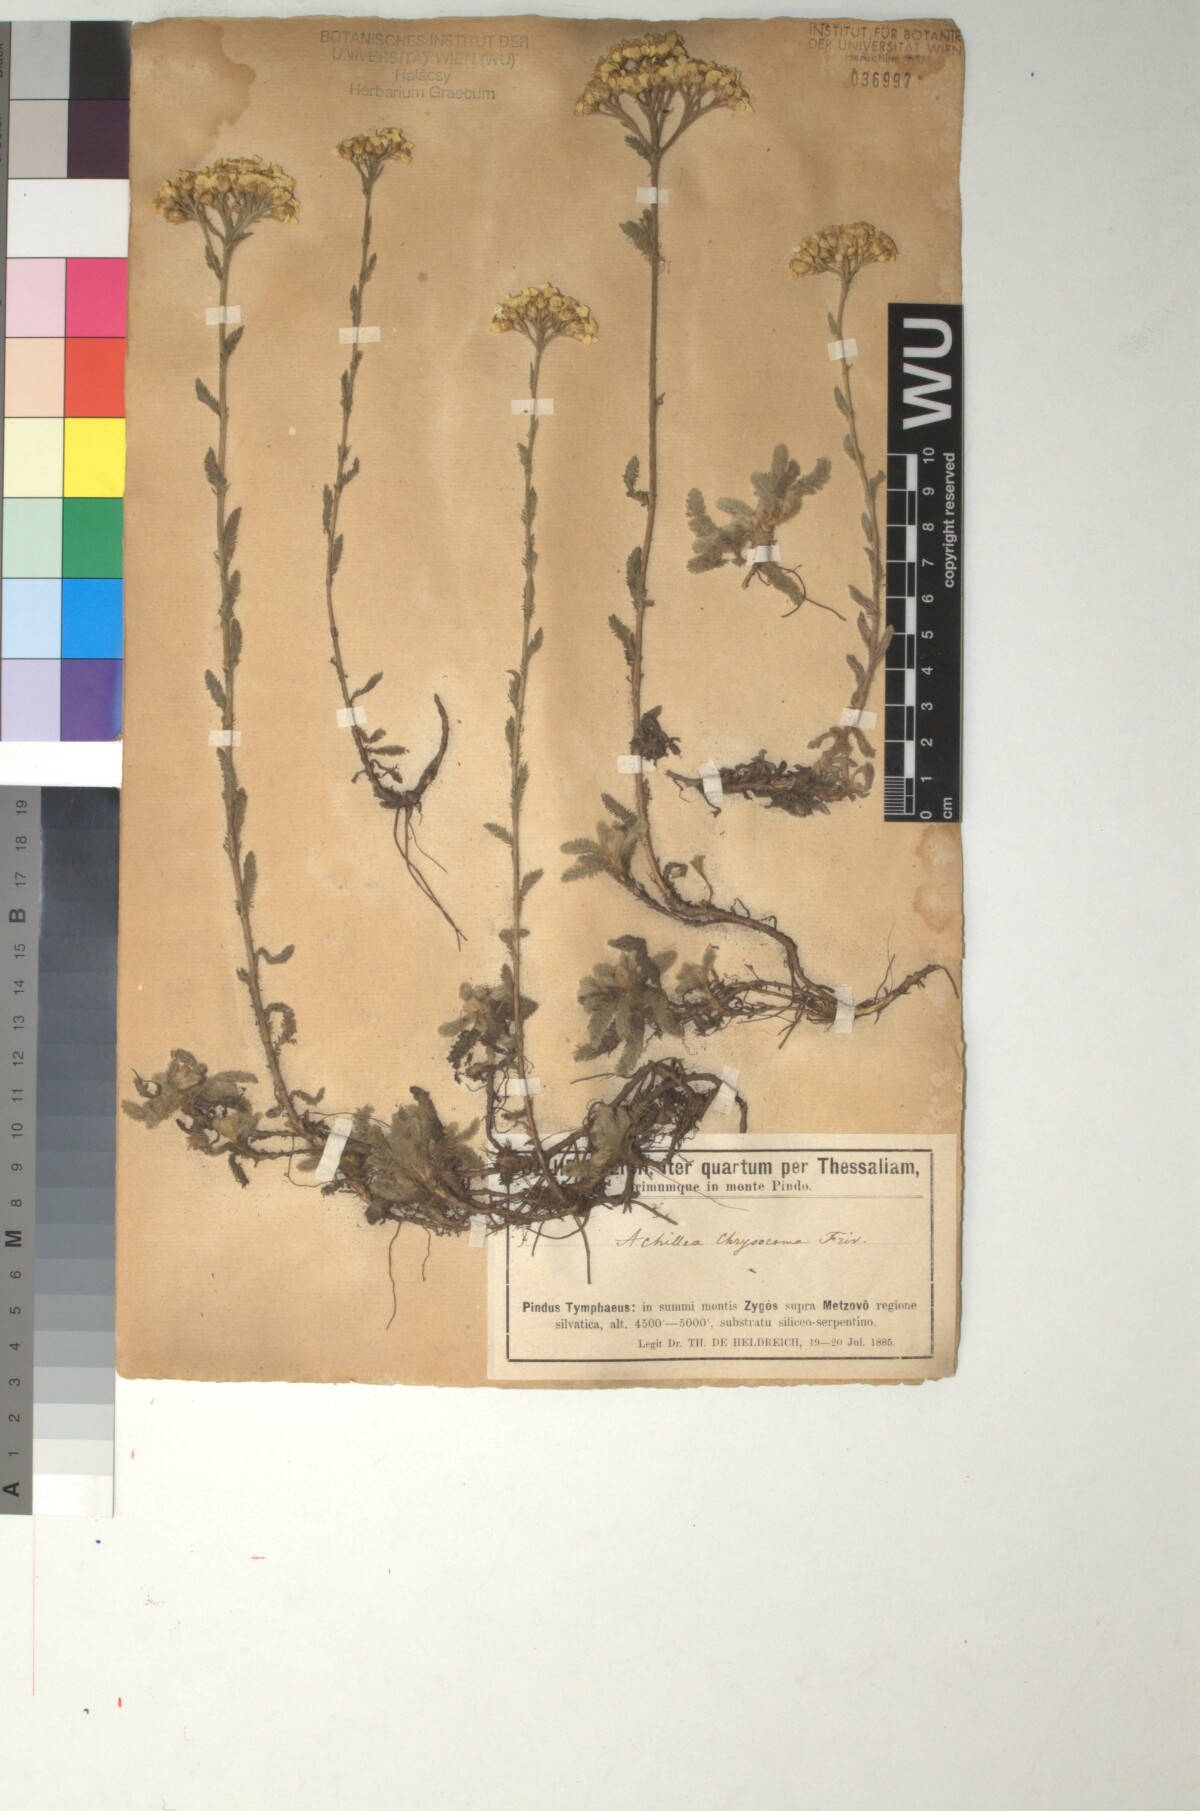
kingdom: Plantae
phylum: Tracheophyta
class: Magnoliopsida
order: Asterales
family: Asteraceae
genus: Achillea
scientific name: Achillea chrysocoma
